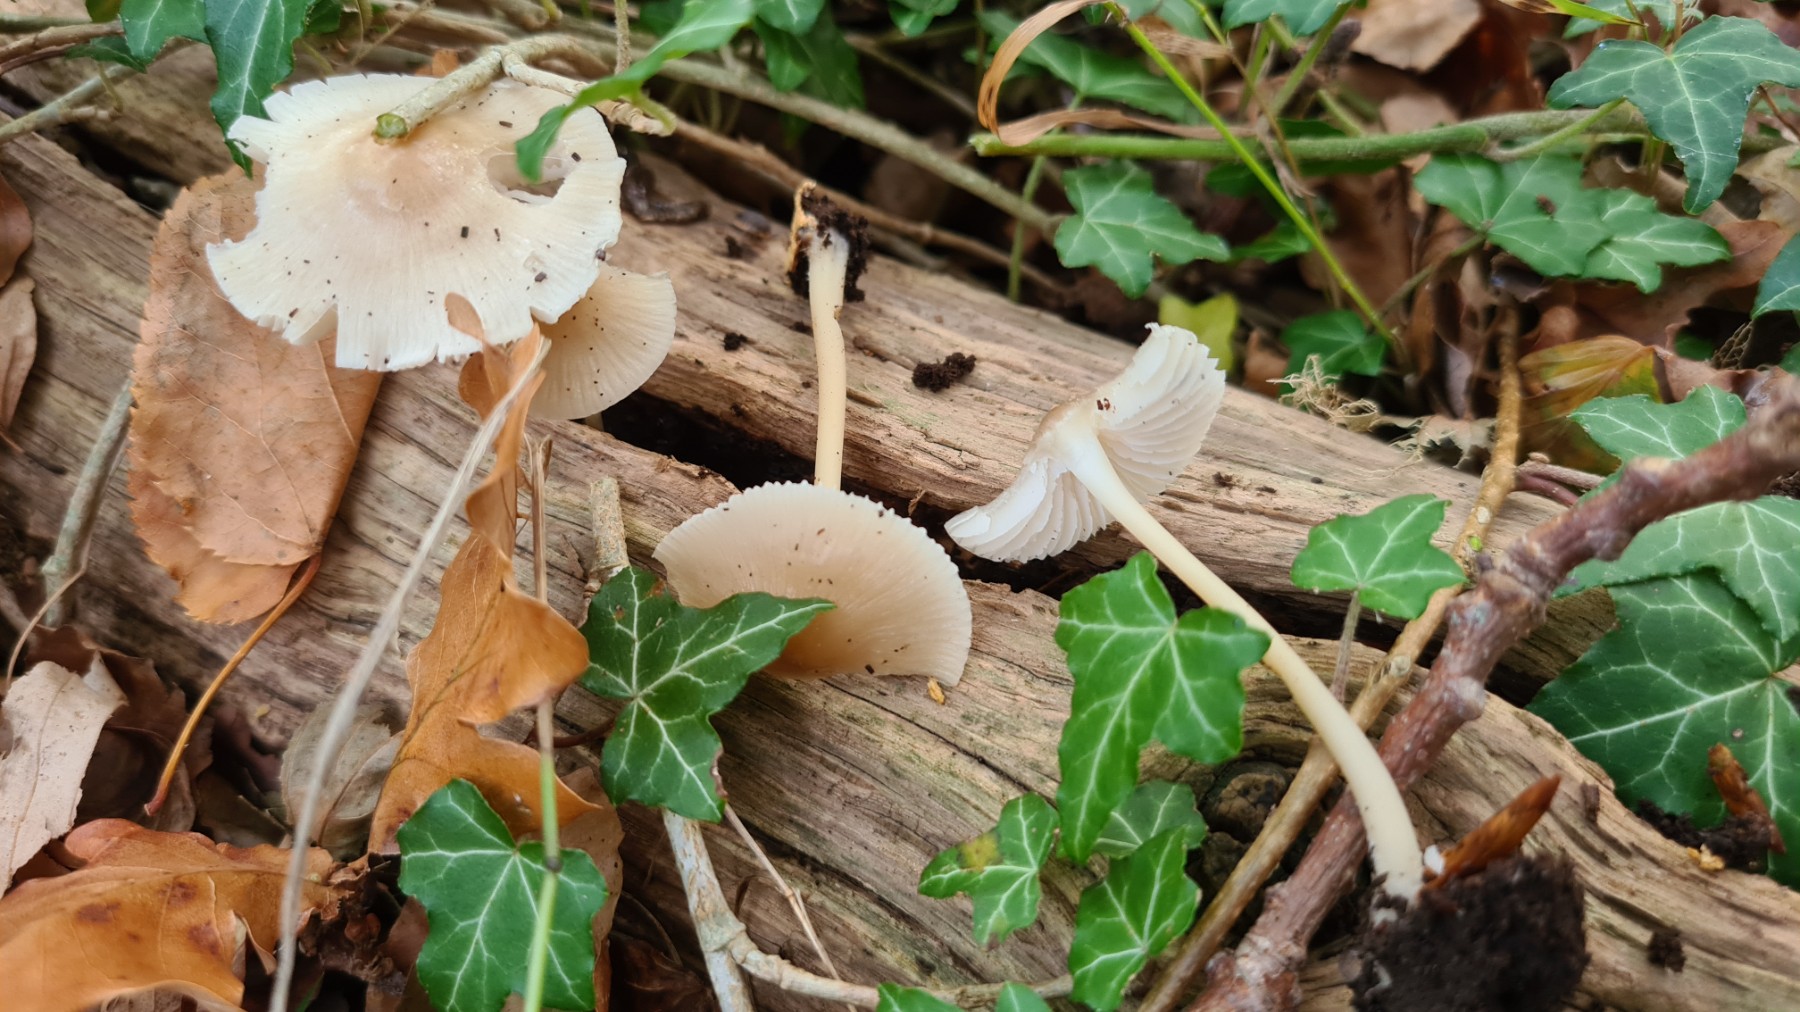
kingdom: Fungi
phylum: Basidiomycota
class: Agaricomycetes
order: Agaricales
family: Mycenaceae
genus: Mycena
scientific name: Mycena galericulata
